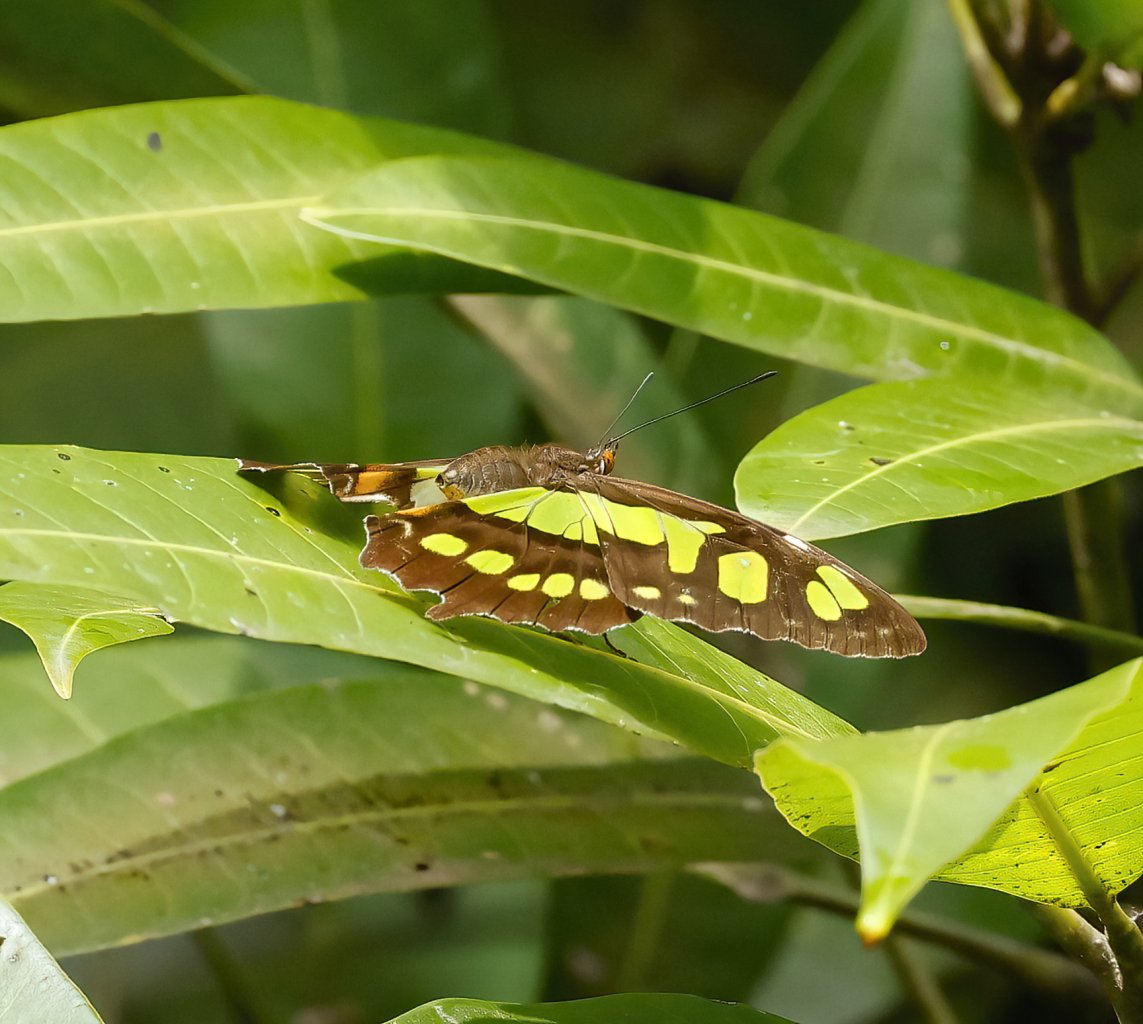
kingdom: Animalia
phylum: Arthropoda
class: Insecta
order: Lepidoptera
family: Nymphalidae
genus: Siproeta
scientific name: Siproeta stelenes
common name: Malachite
